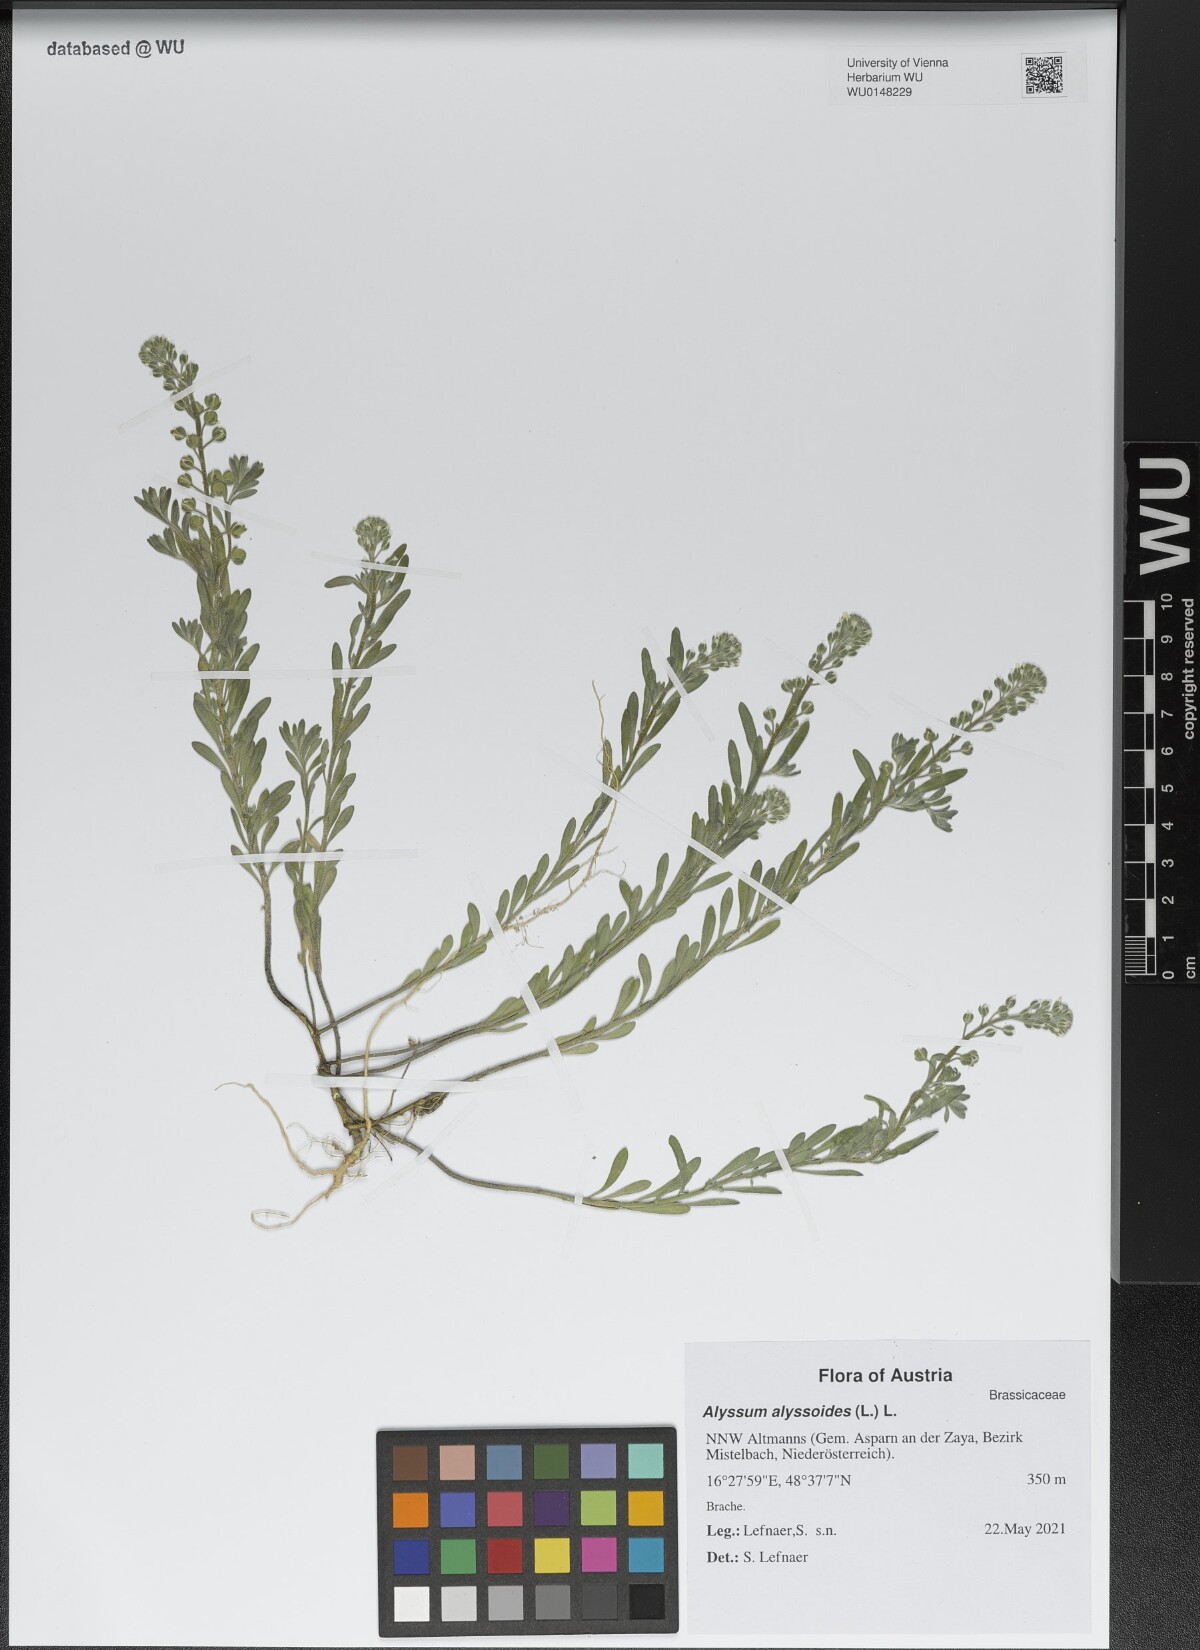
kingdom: Plantae
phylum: Tracheophyta
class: Magnoliopsida
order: Brassicales
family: Brassicaceae
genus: Alyssum
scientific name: Alyssum alyssoides
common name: Small alison
